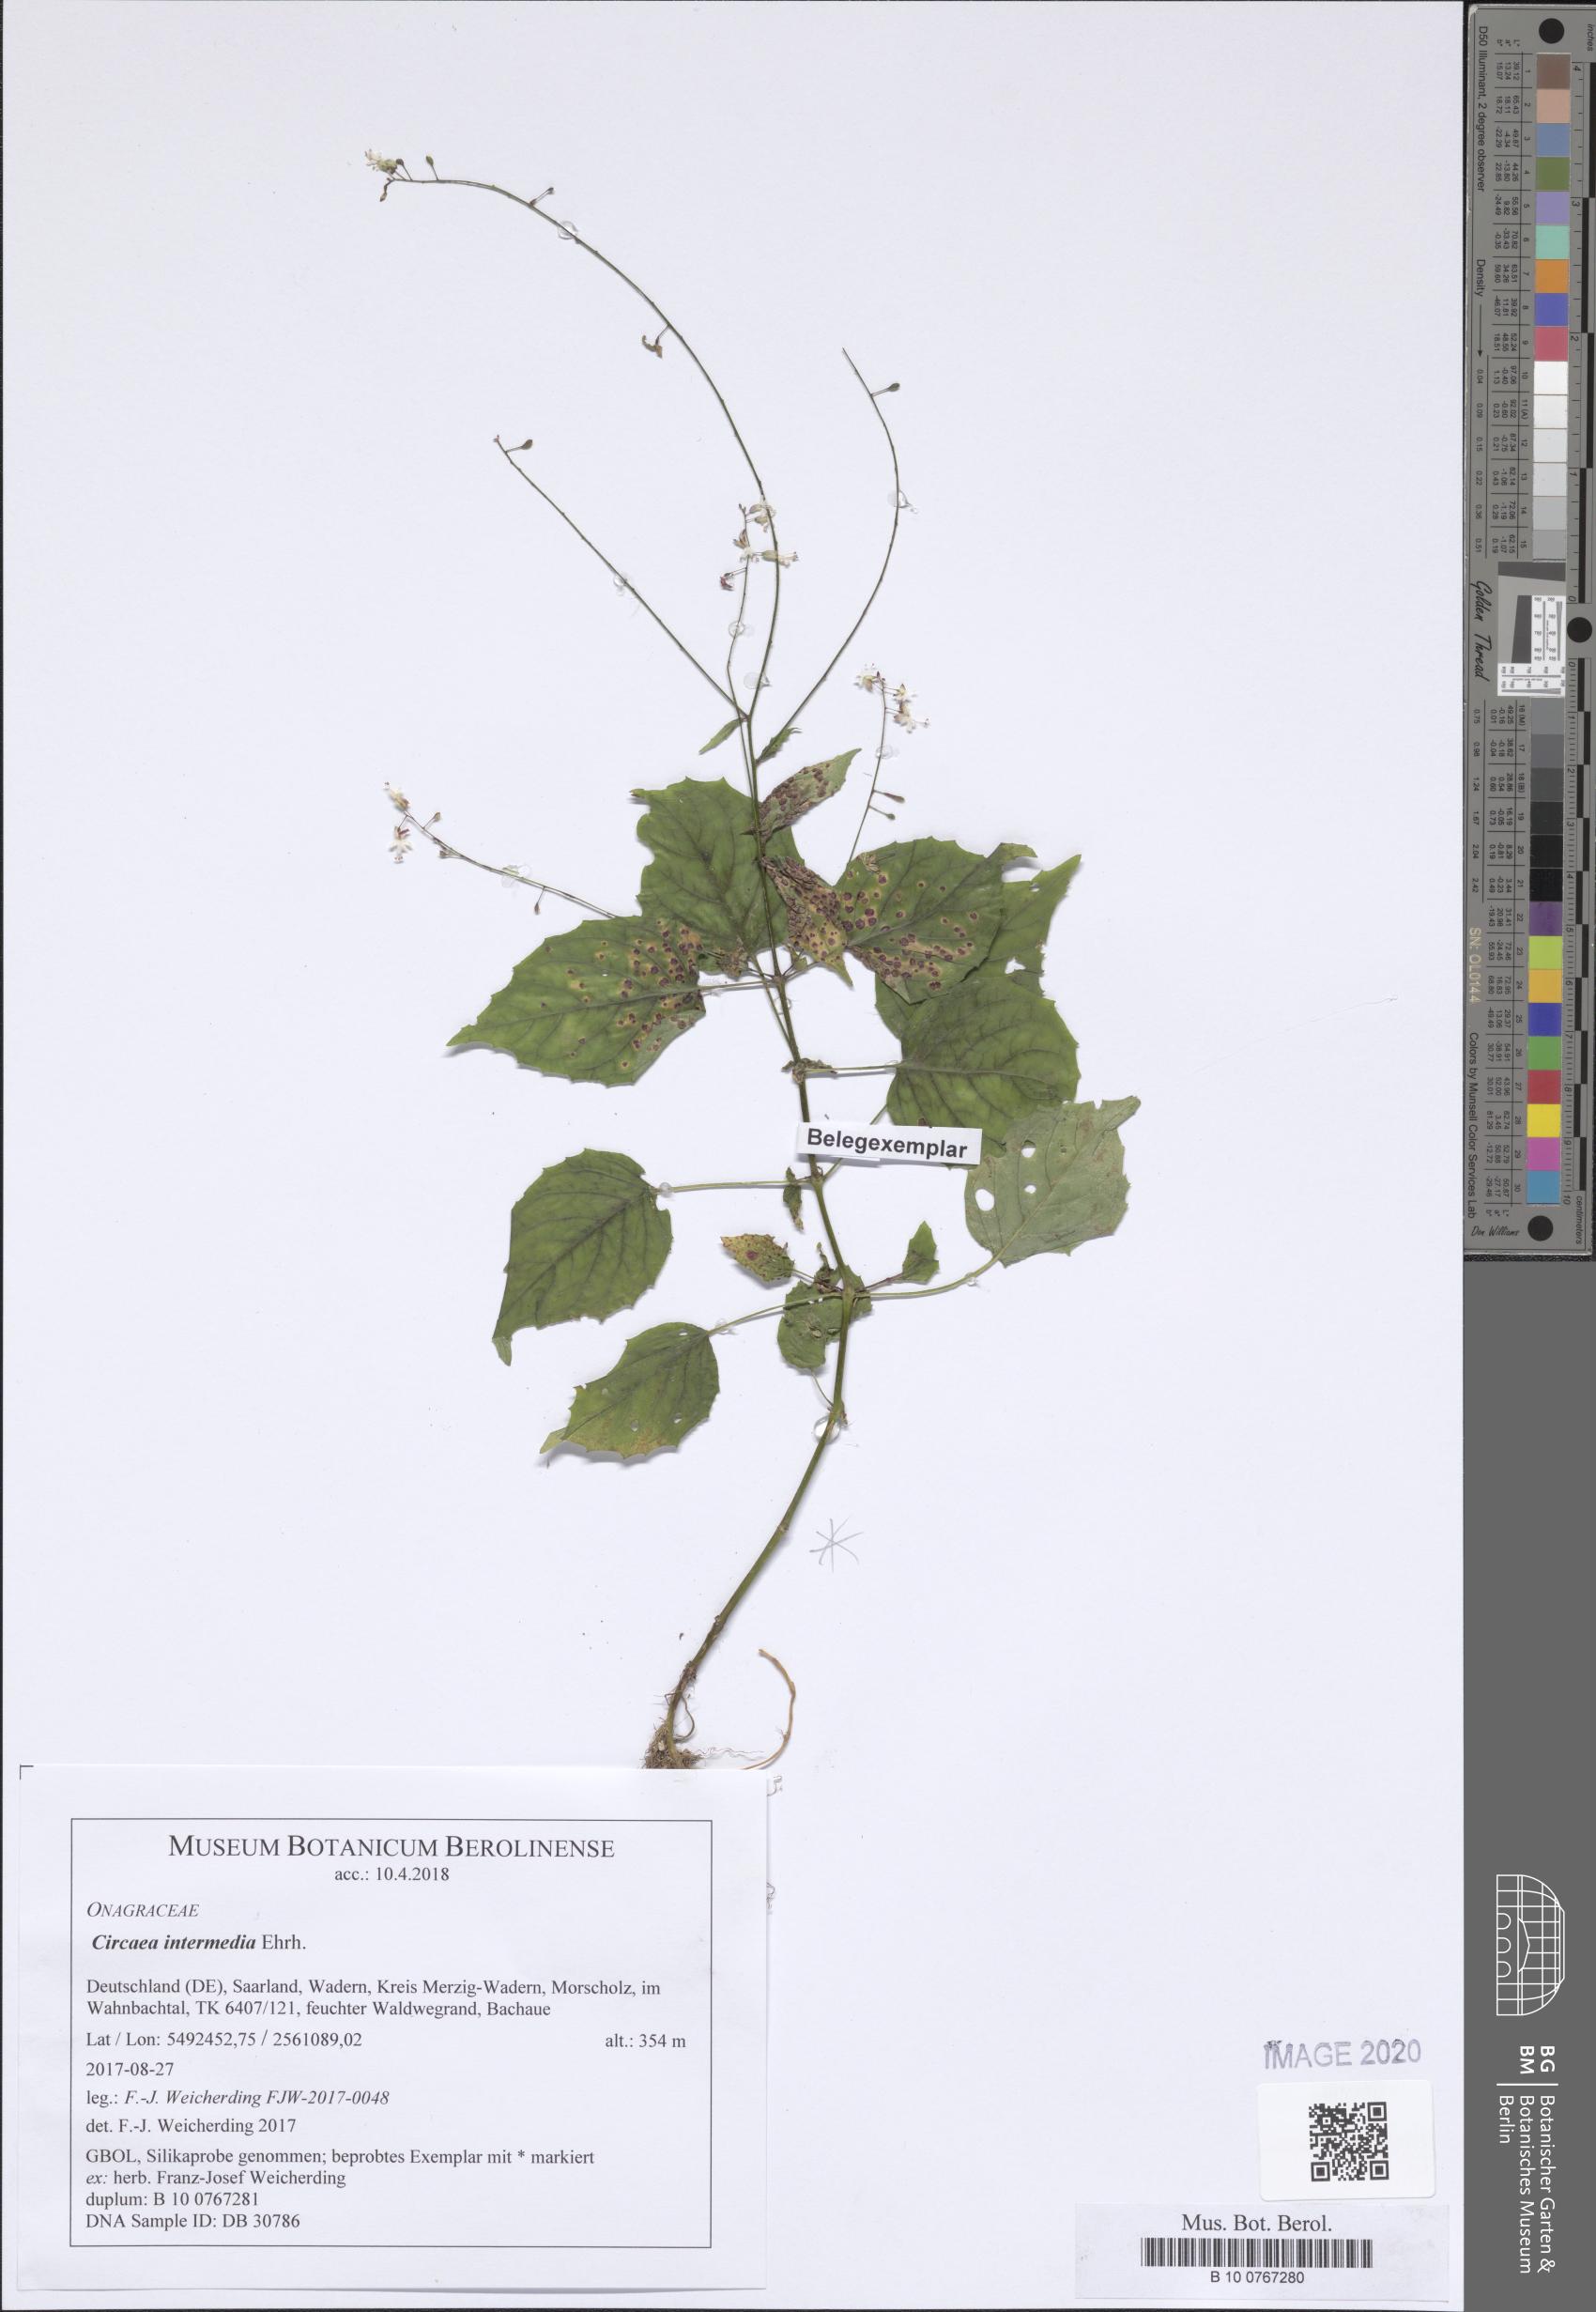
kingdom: Plantae
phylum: Tracheophyta
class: Magnoliopsida
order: Myrtales
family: Onagraceae
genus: Circaea
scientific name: Circaea intermedia
